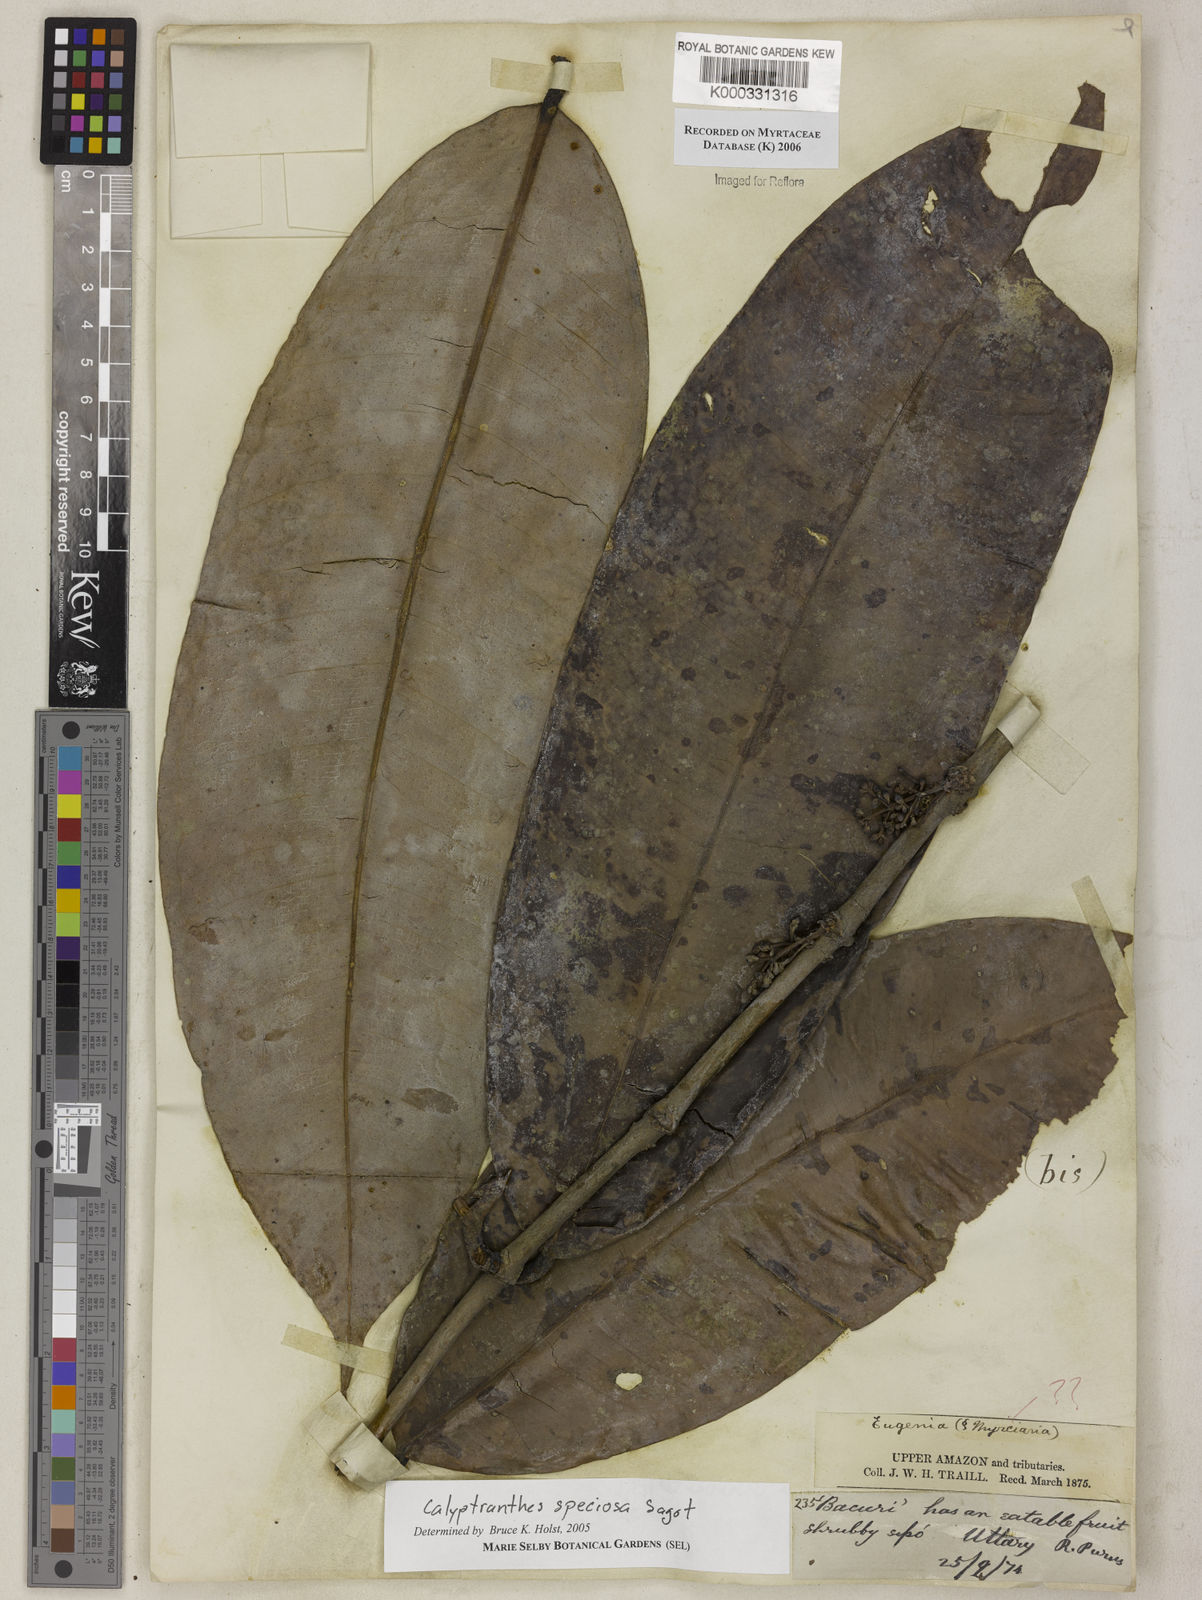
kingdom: Plantae
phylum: Tracheophyta
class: Magnoliopsida
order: Myrtales
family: Myrtaceae
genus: Myrcia
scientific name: Myrcia neospeciosa
